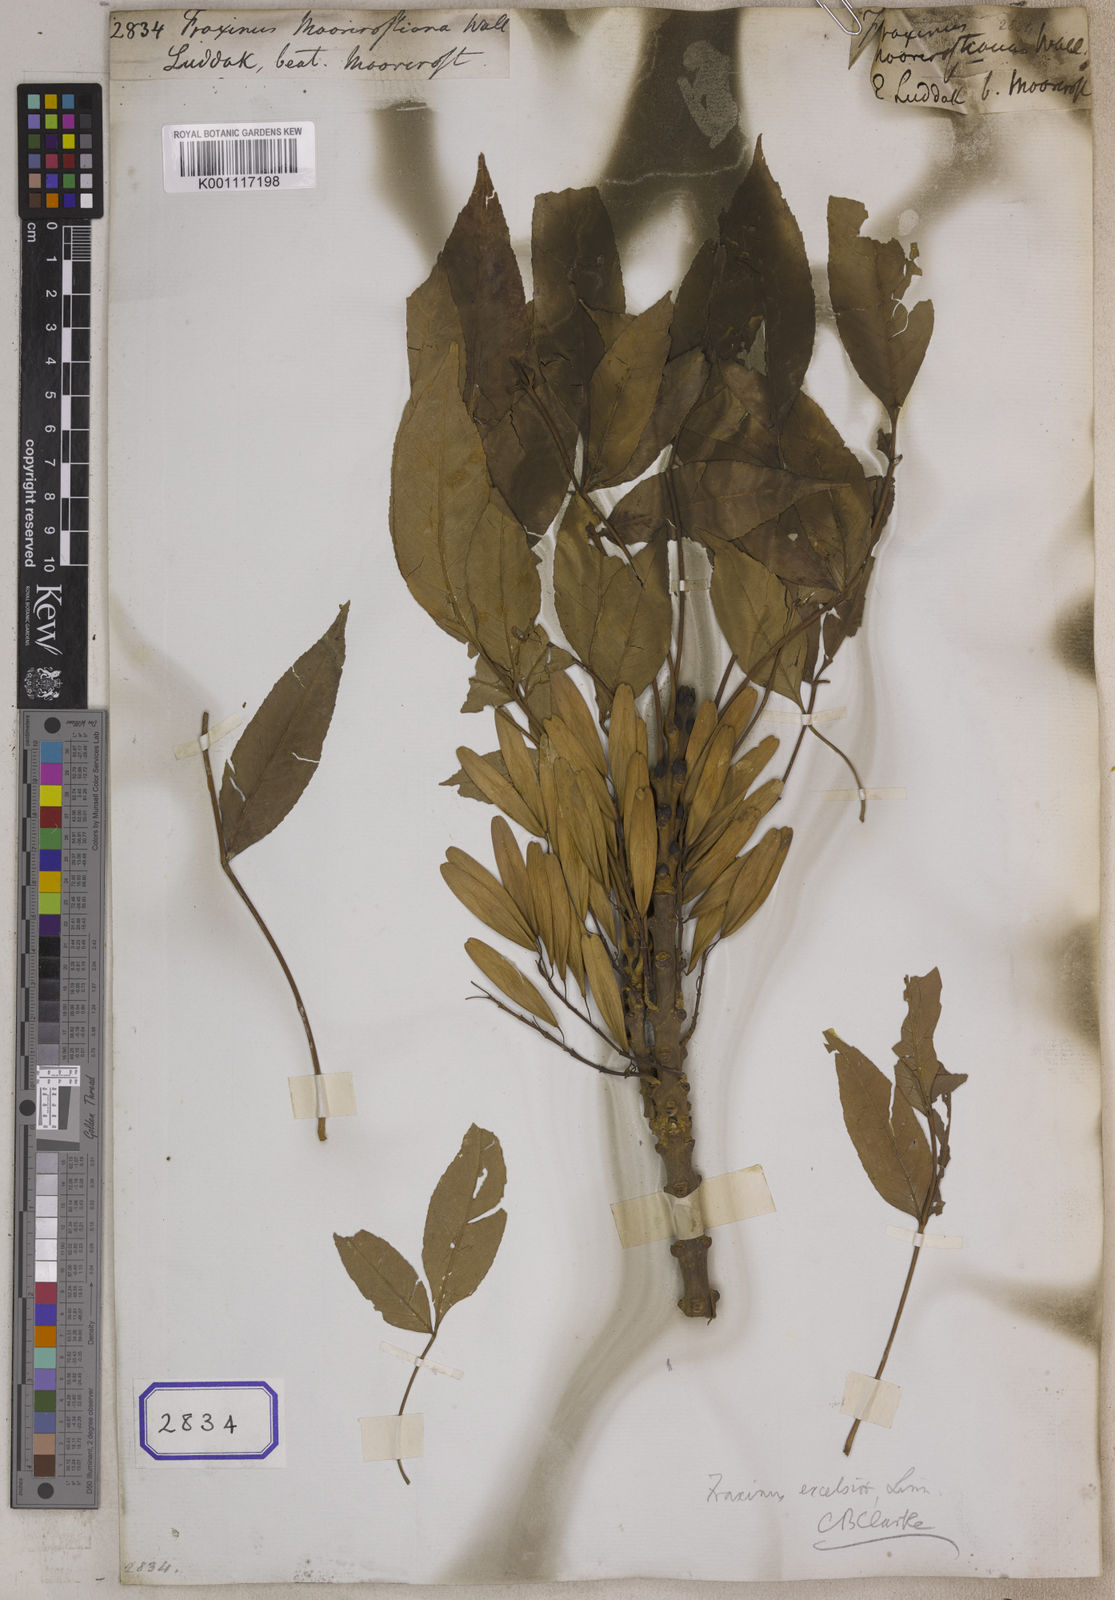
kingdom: Plantae
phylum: Tracheophyta
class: Magnoliopsida
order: Lamiales
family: Oleaceae
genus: Fraxinus
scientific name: Fraxinus
